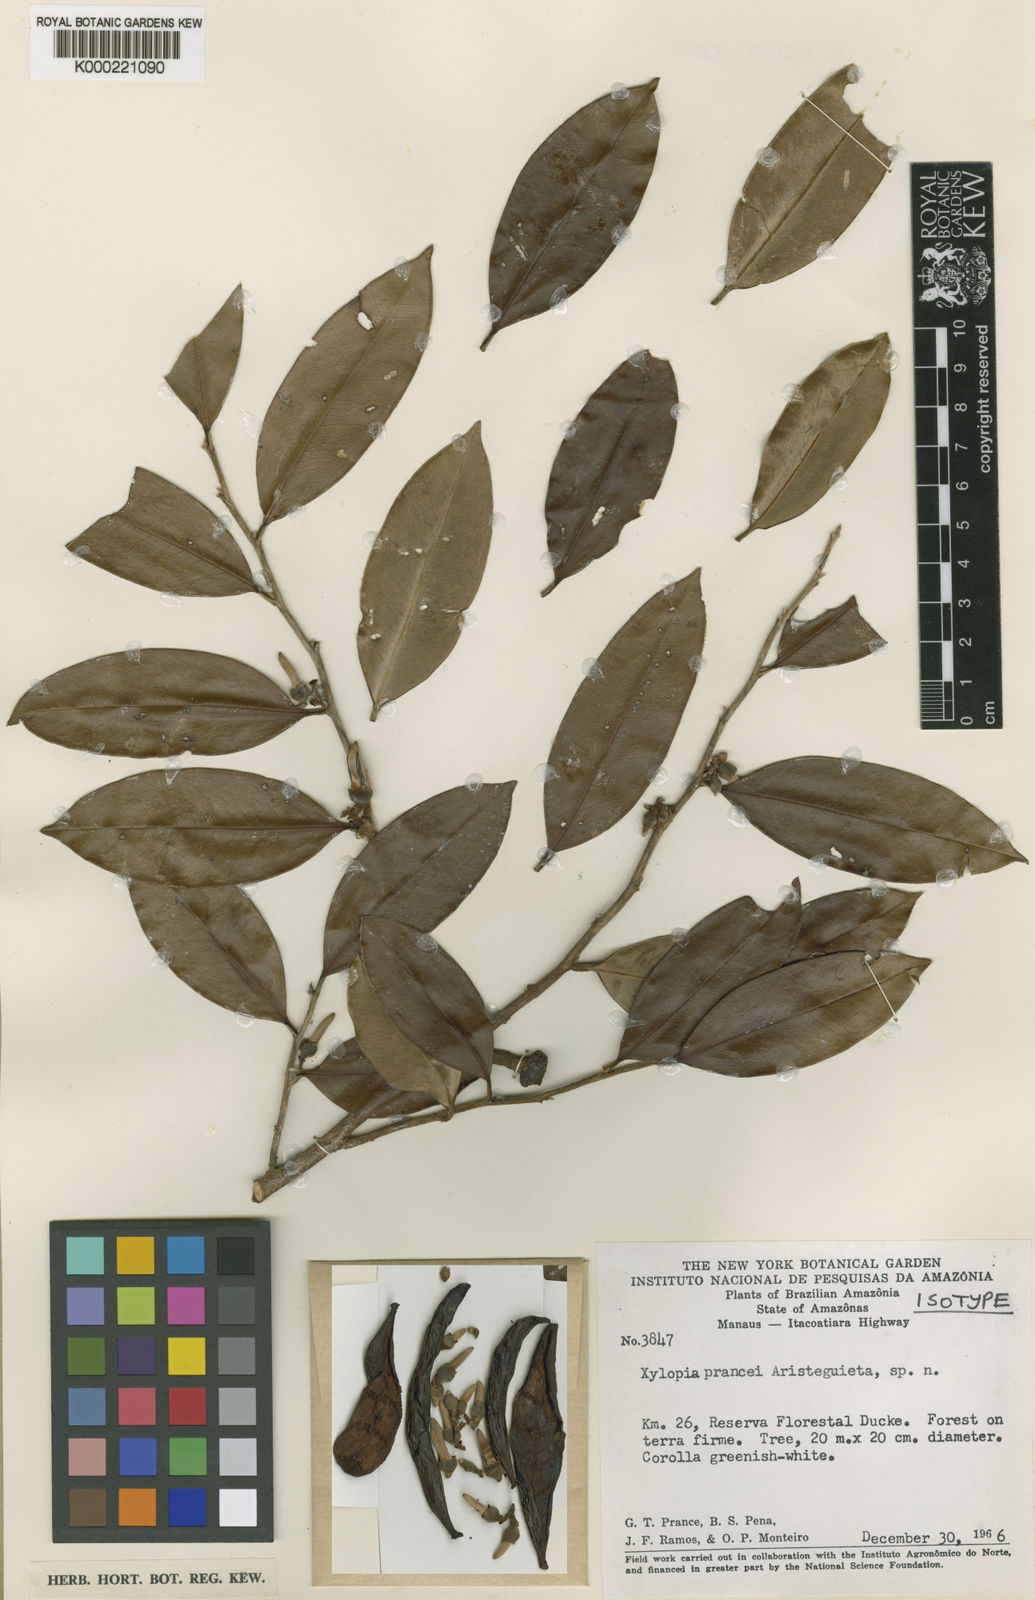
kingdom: Plantae
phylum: Tracheophyta
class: Magnoliopsida
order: Magnoliales
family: Annonaceae
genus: Xylopia
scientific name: Xylopia
